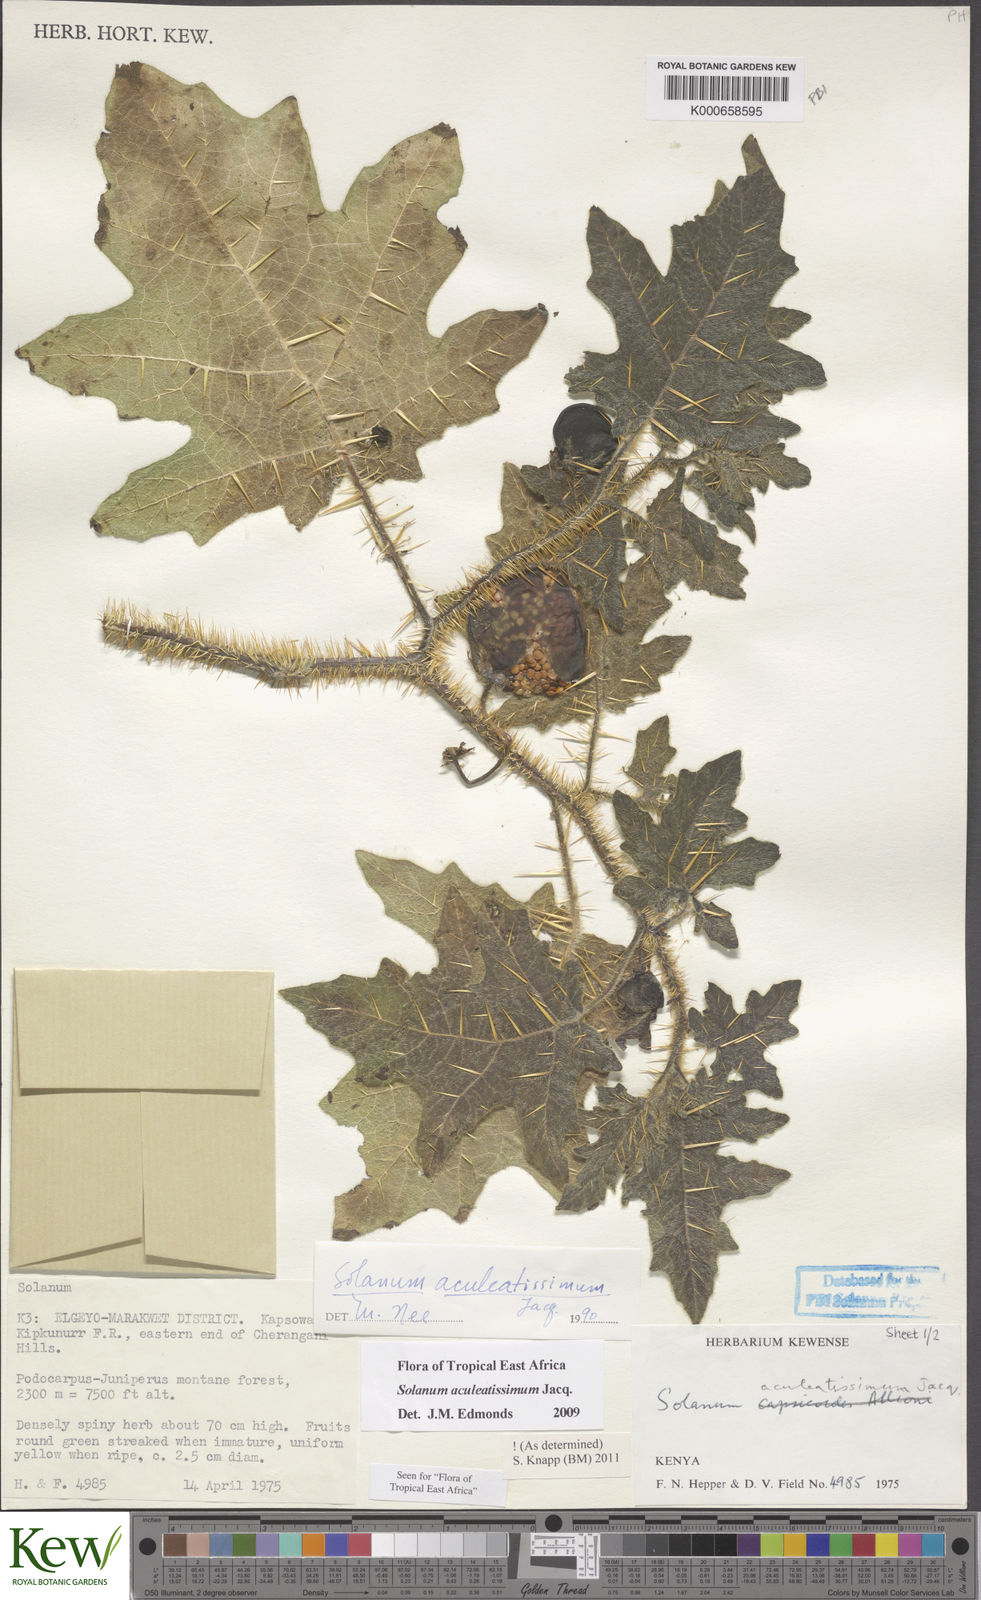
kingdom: Plantae
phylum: Tracheophyta
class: Magnoliopsida
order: Solanales
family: Solanaceae
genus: Solanum
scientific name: Solanum aculeatissimum
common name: Dutch eggplant
